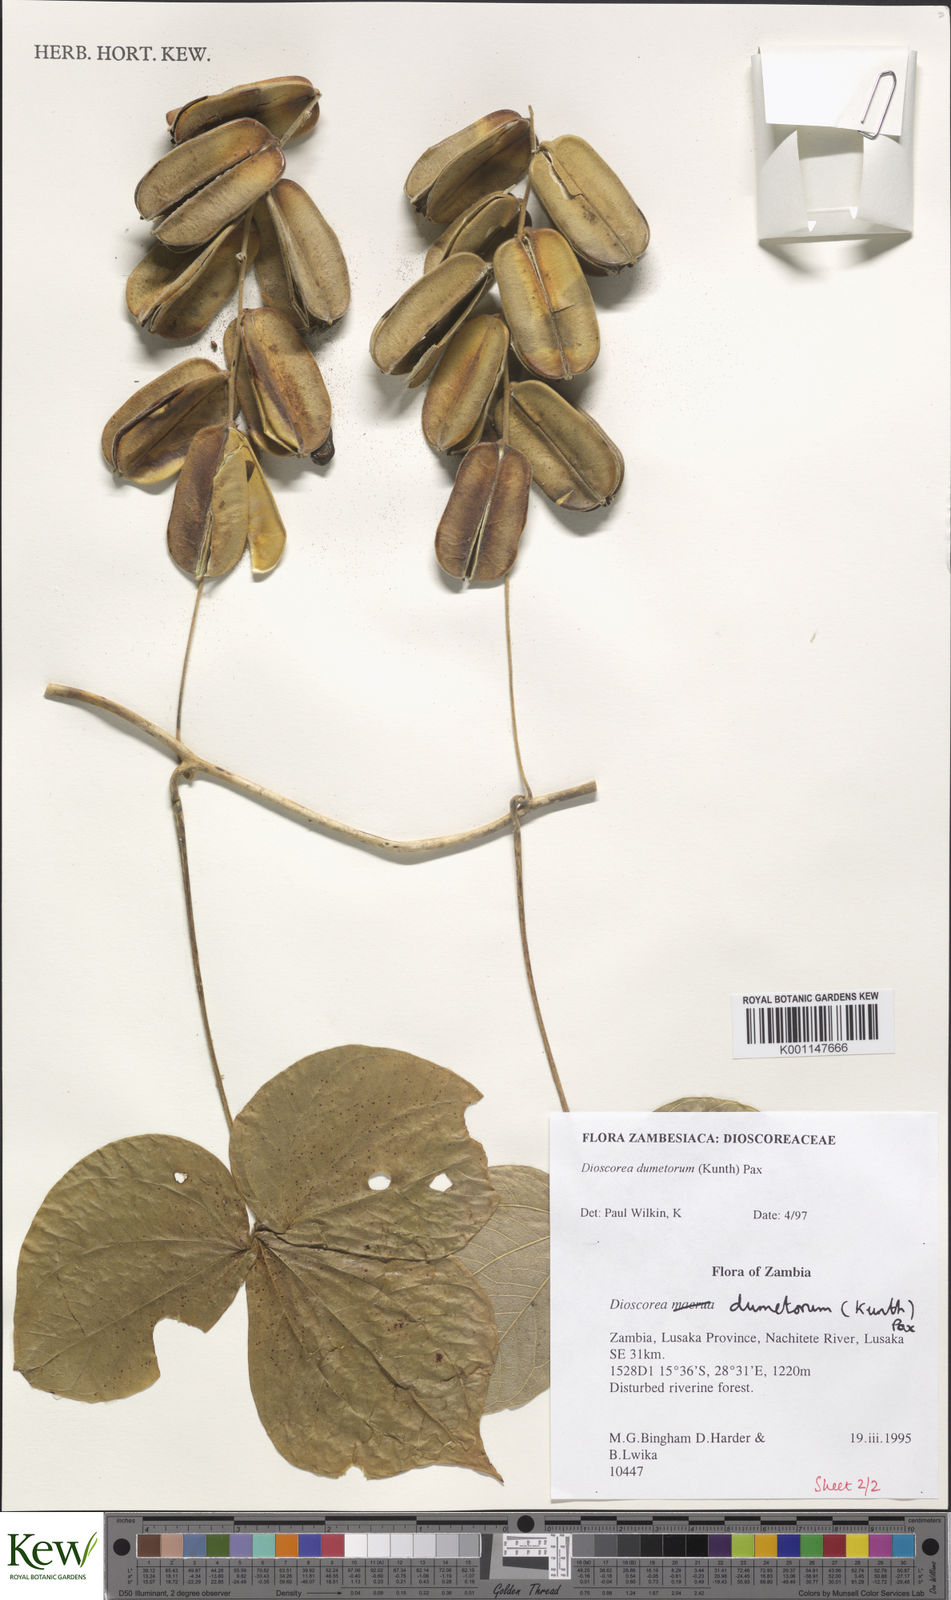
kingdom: Plantae
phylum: Tracheophyta
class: Liliopsida
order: Dioscoreales
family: Dioscoreaceae
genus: Dioscorea
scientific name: Dioscorea dumetorum
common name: African bitter yam
